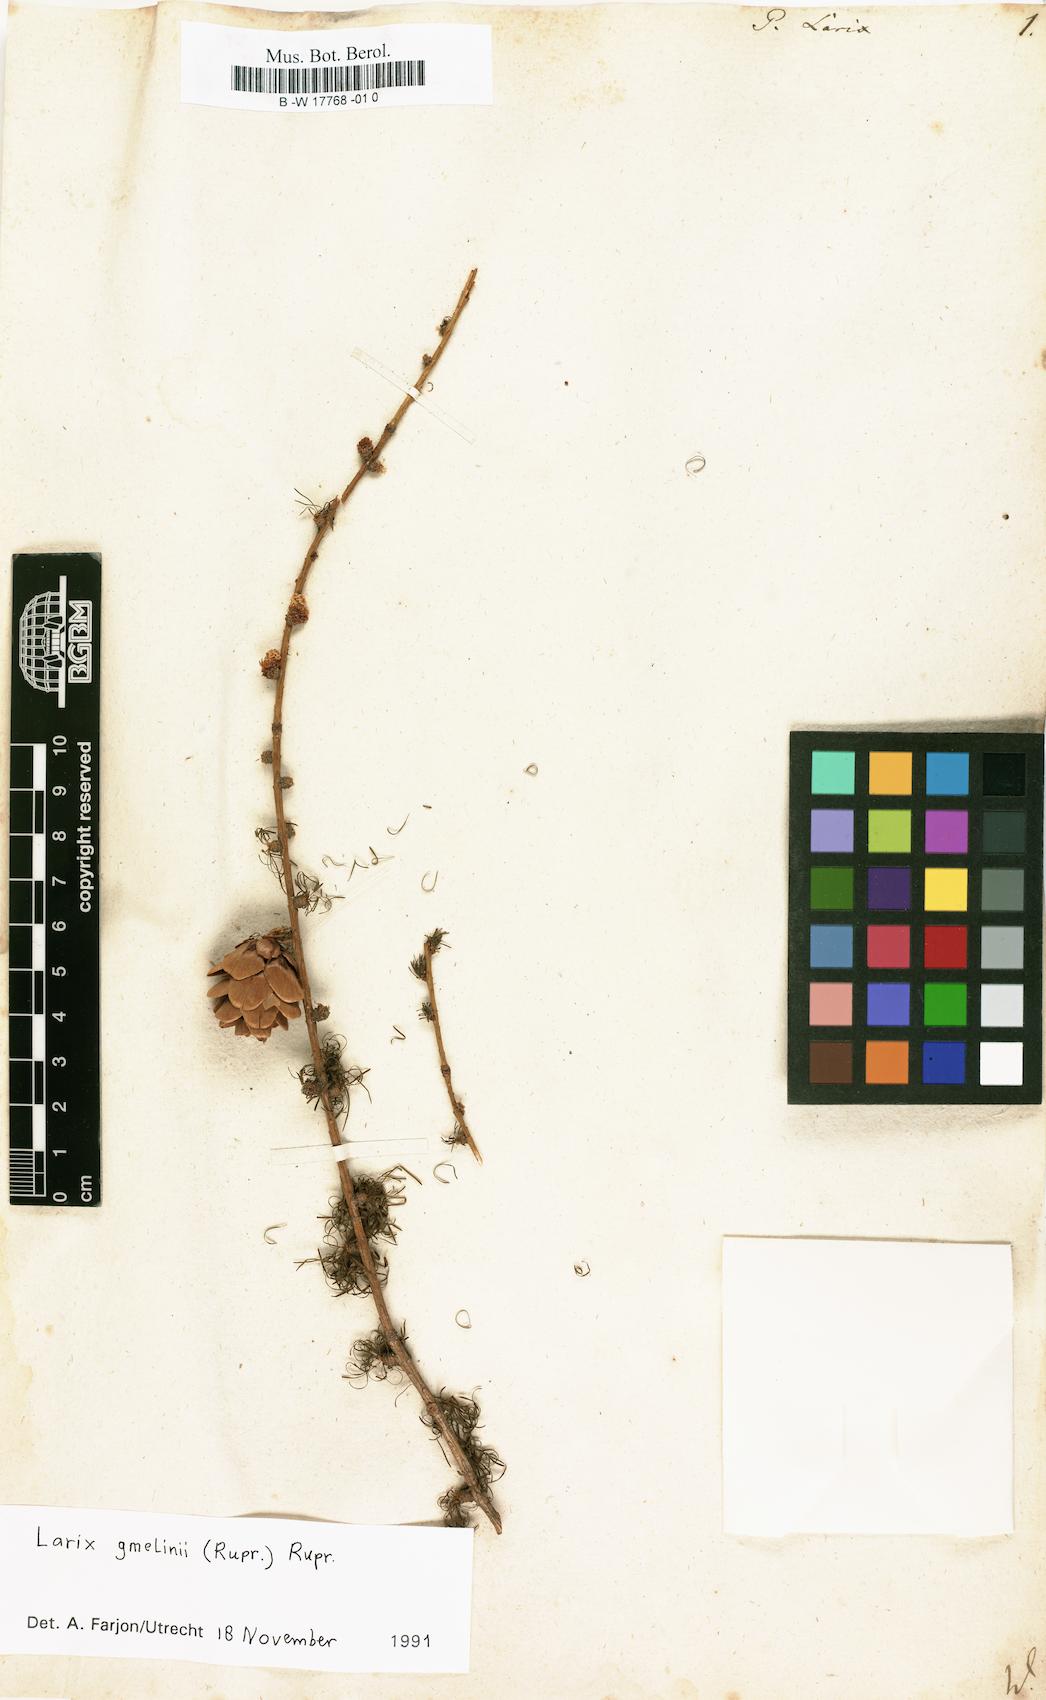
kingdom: Plantae
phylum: Tracheophyta
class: Pinopsida
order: Pinales
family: Pinaceae
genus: Larix
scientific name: Larix decidua
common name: European larch
